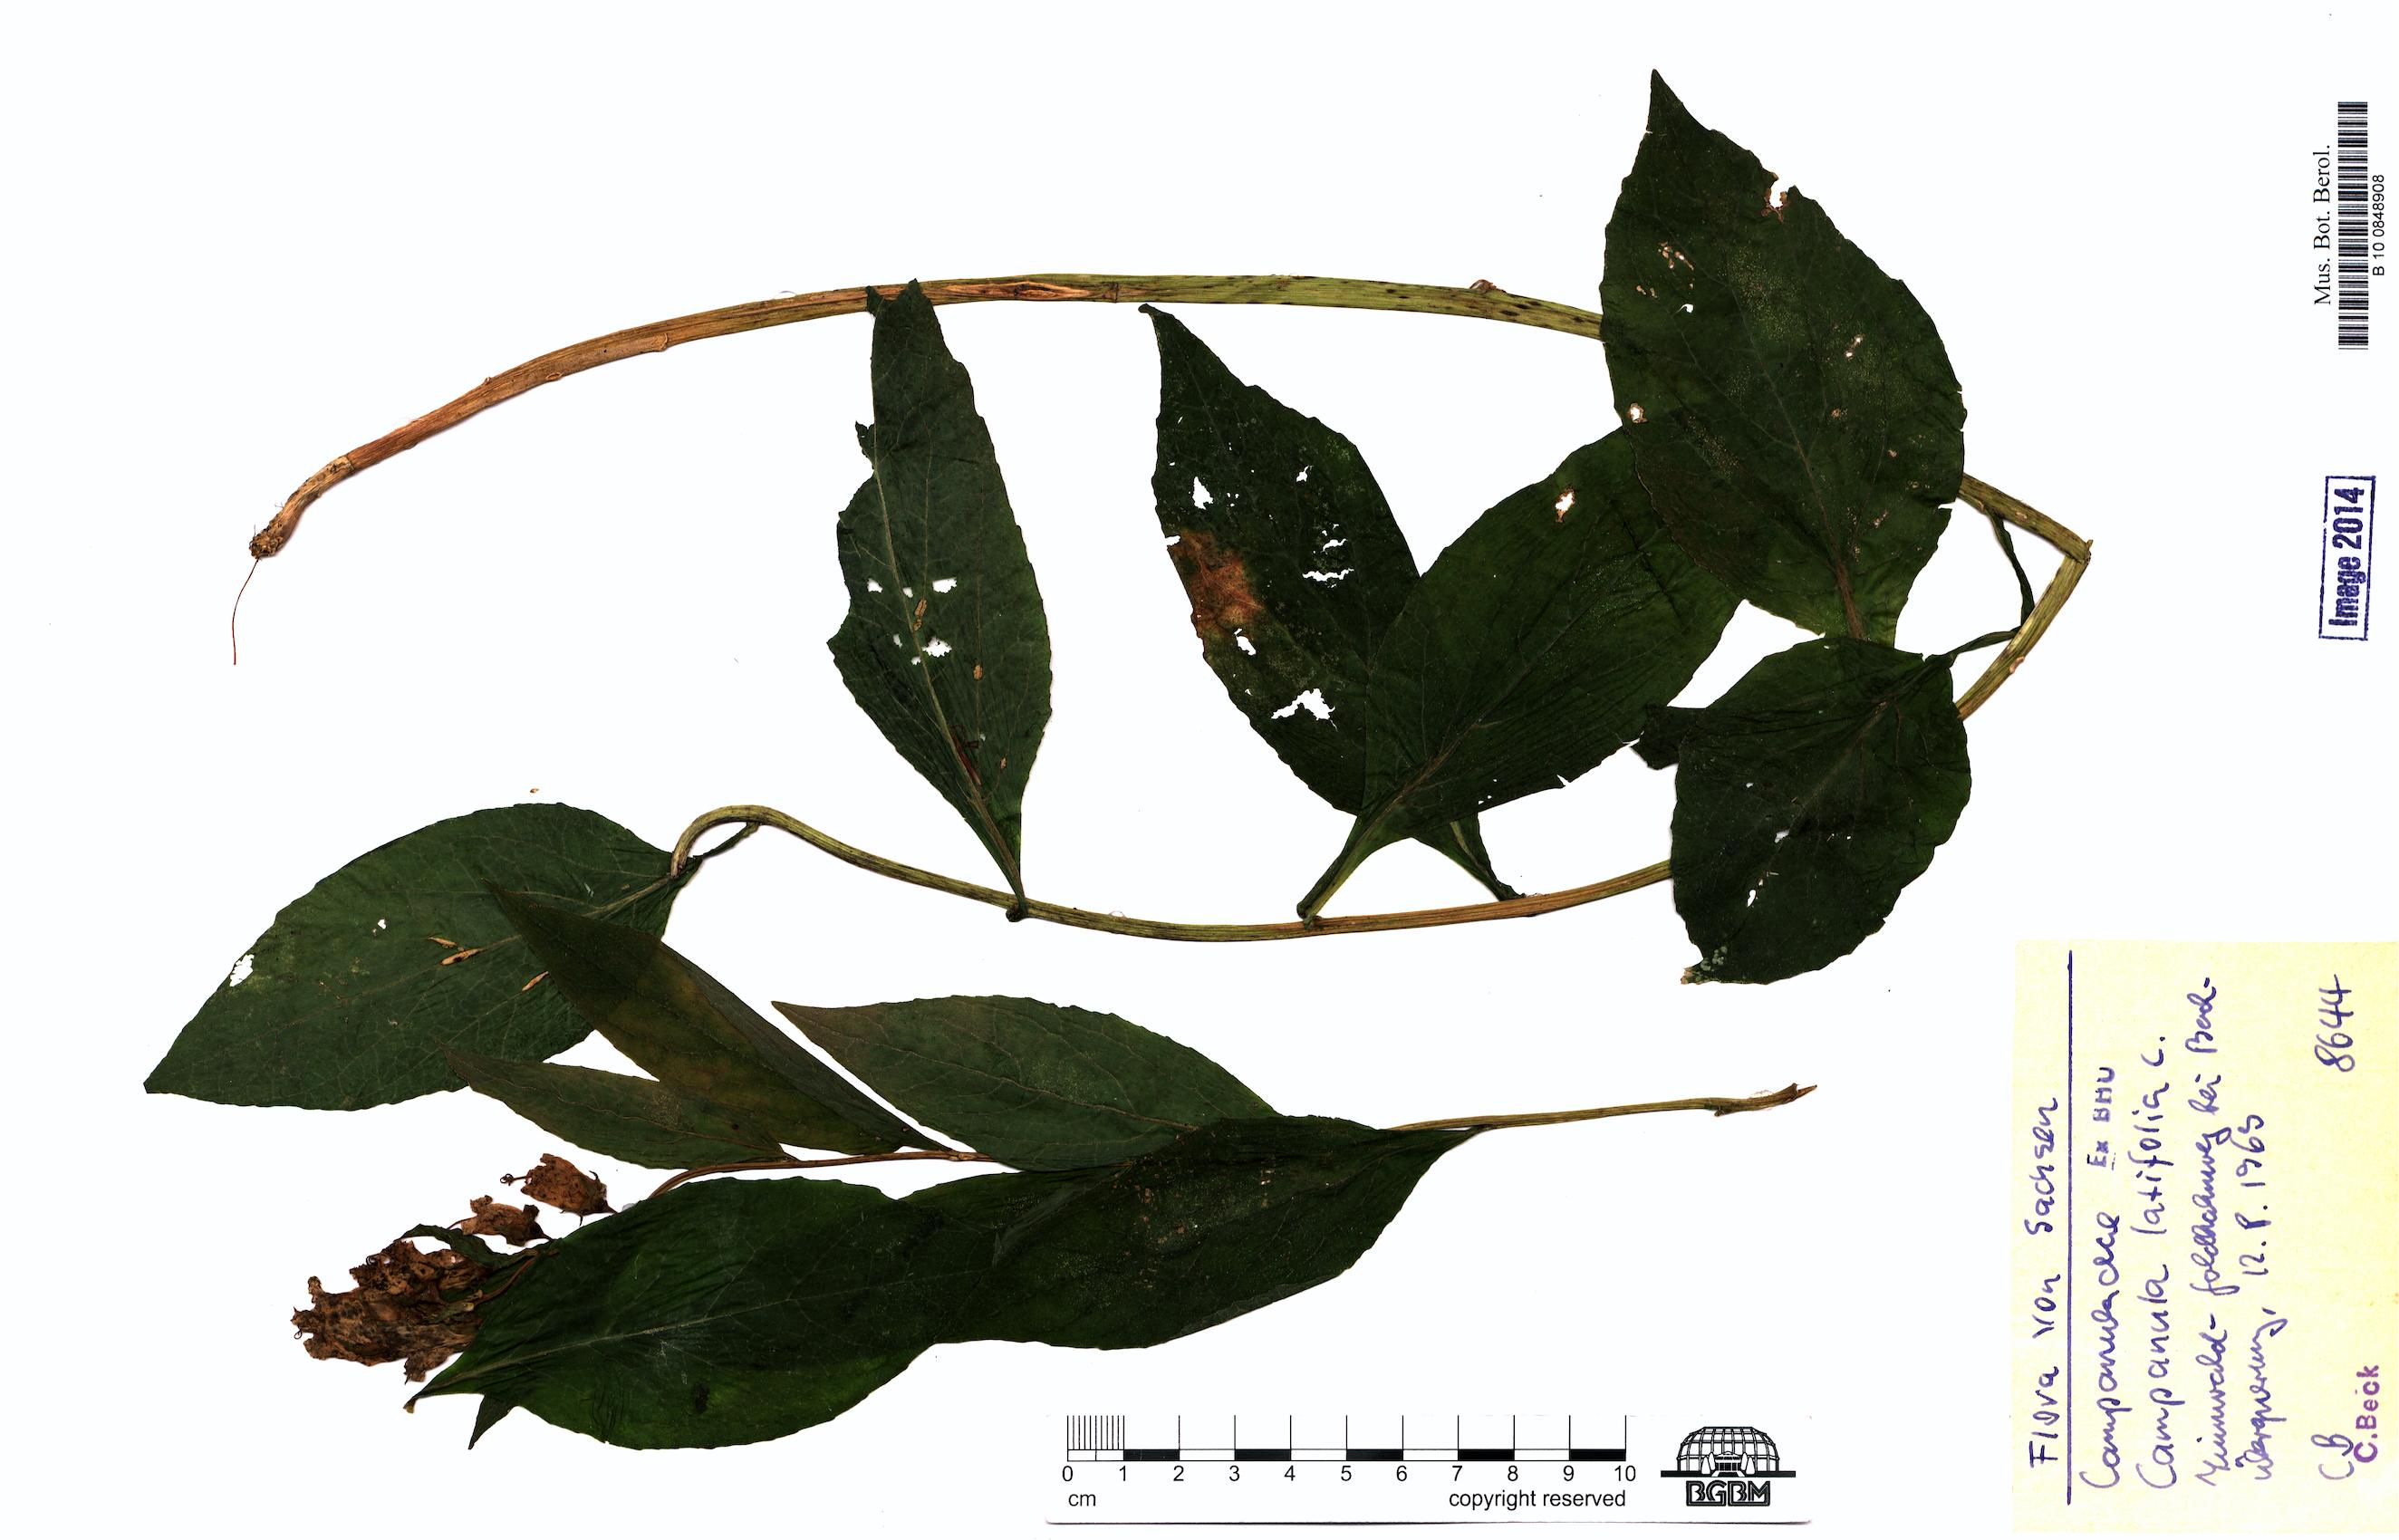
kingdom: Plantae
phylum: Tracheophyta
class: Magnoliopsida
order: Asterales
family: Campanulaceae
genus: Campanula
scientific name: Campanula latifolia
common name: Giant bellflower
